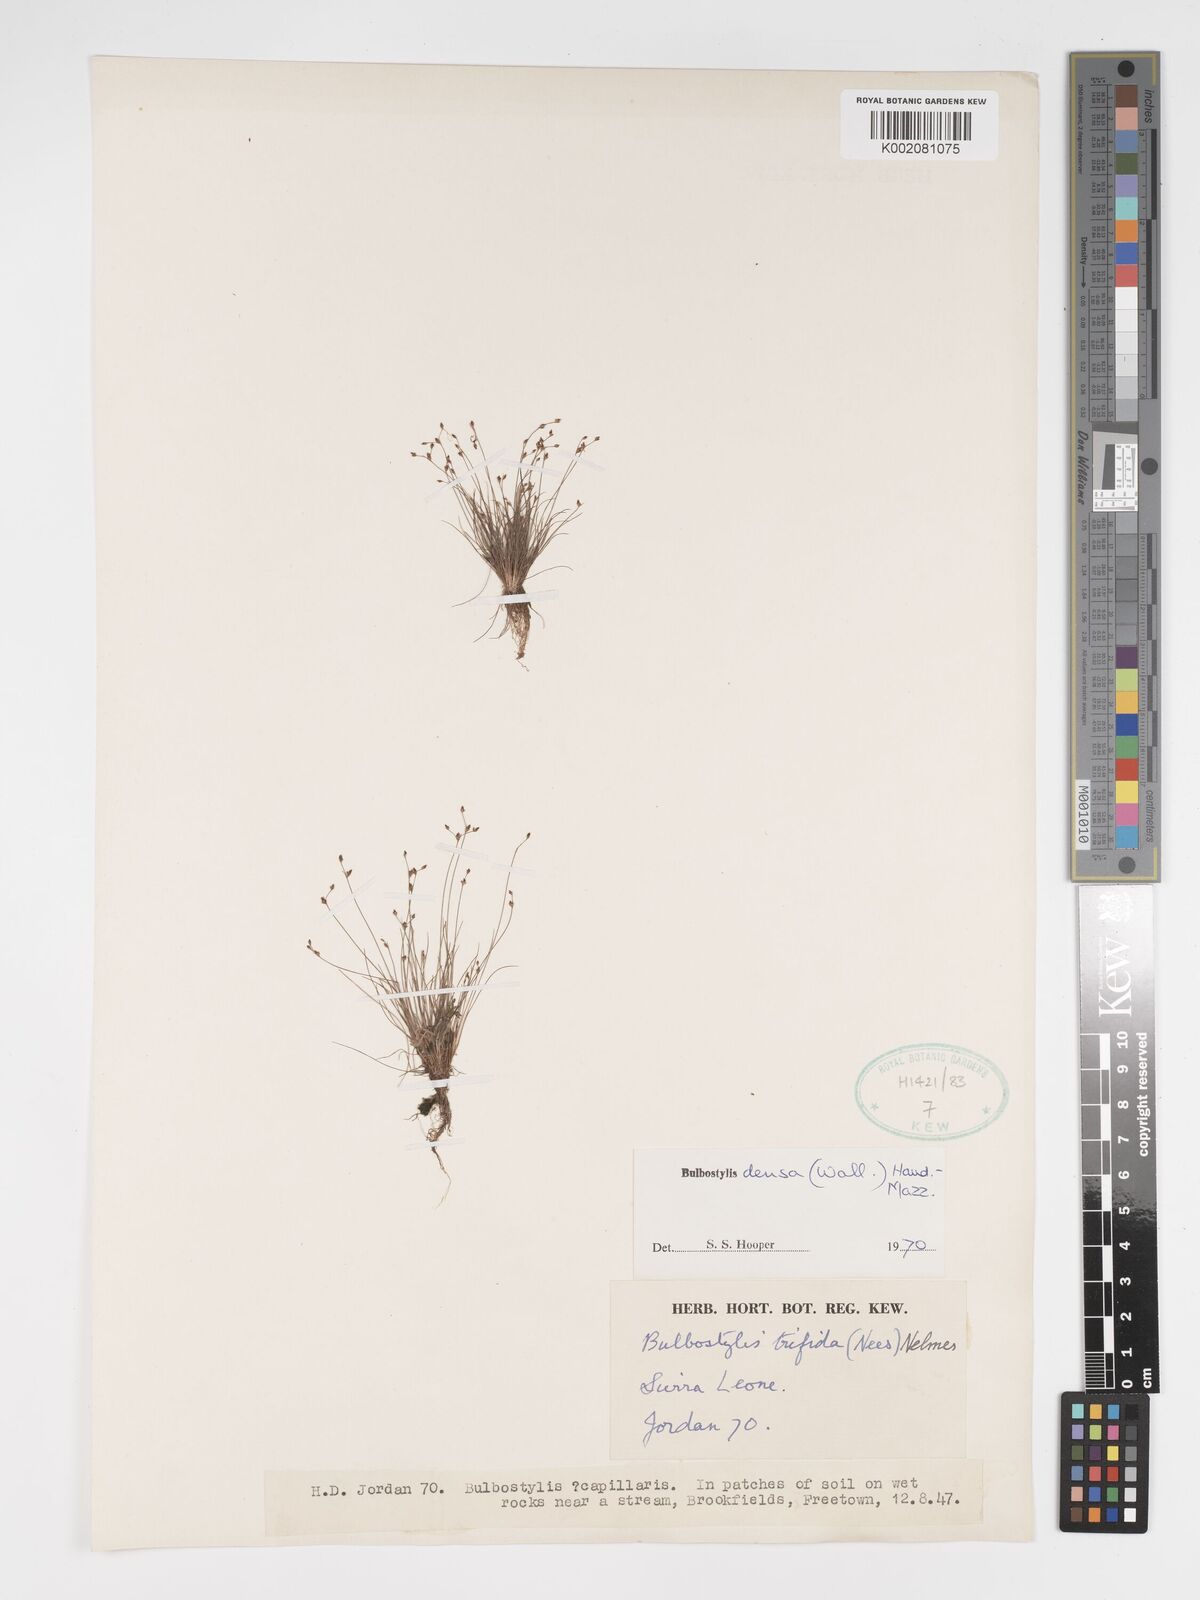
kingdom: Plantae
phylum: Tracheophyta
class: Liliopsida
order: Poales
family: Cyperaceae
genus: Bulbostylis
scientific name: Bulbostylis densa
